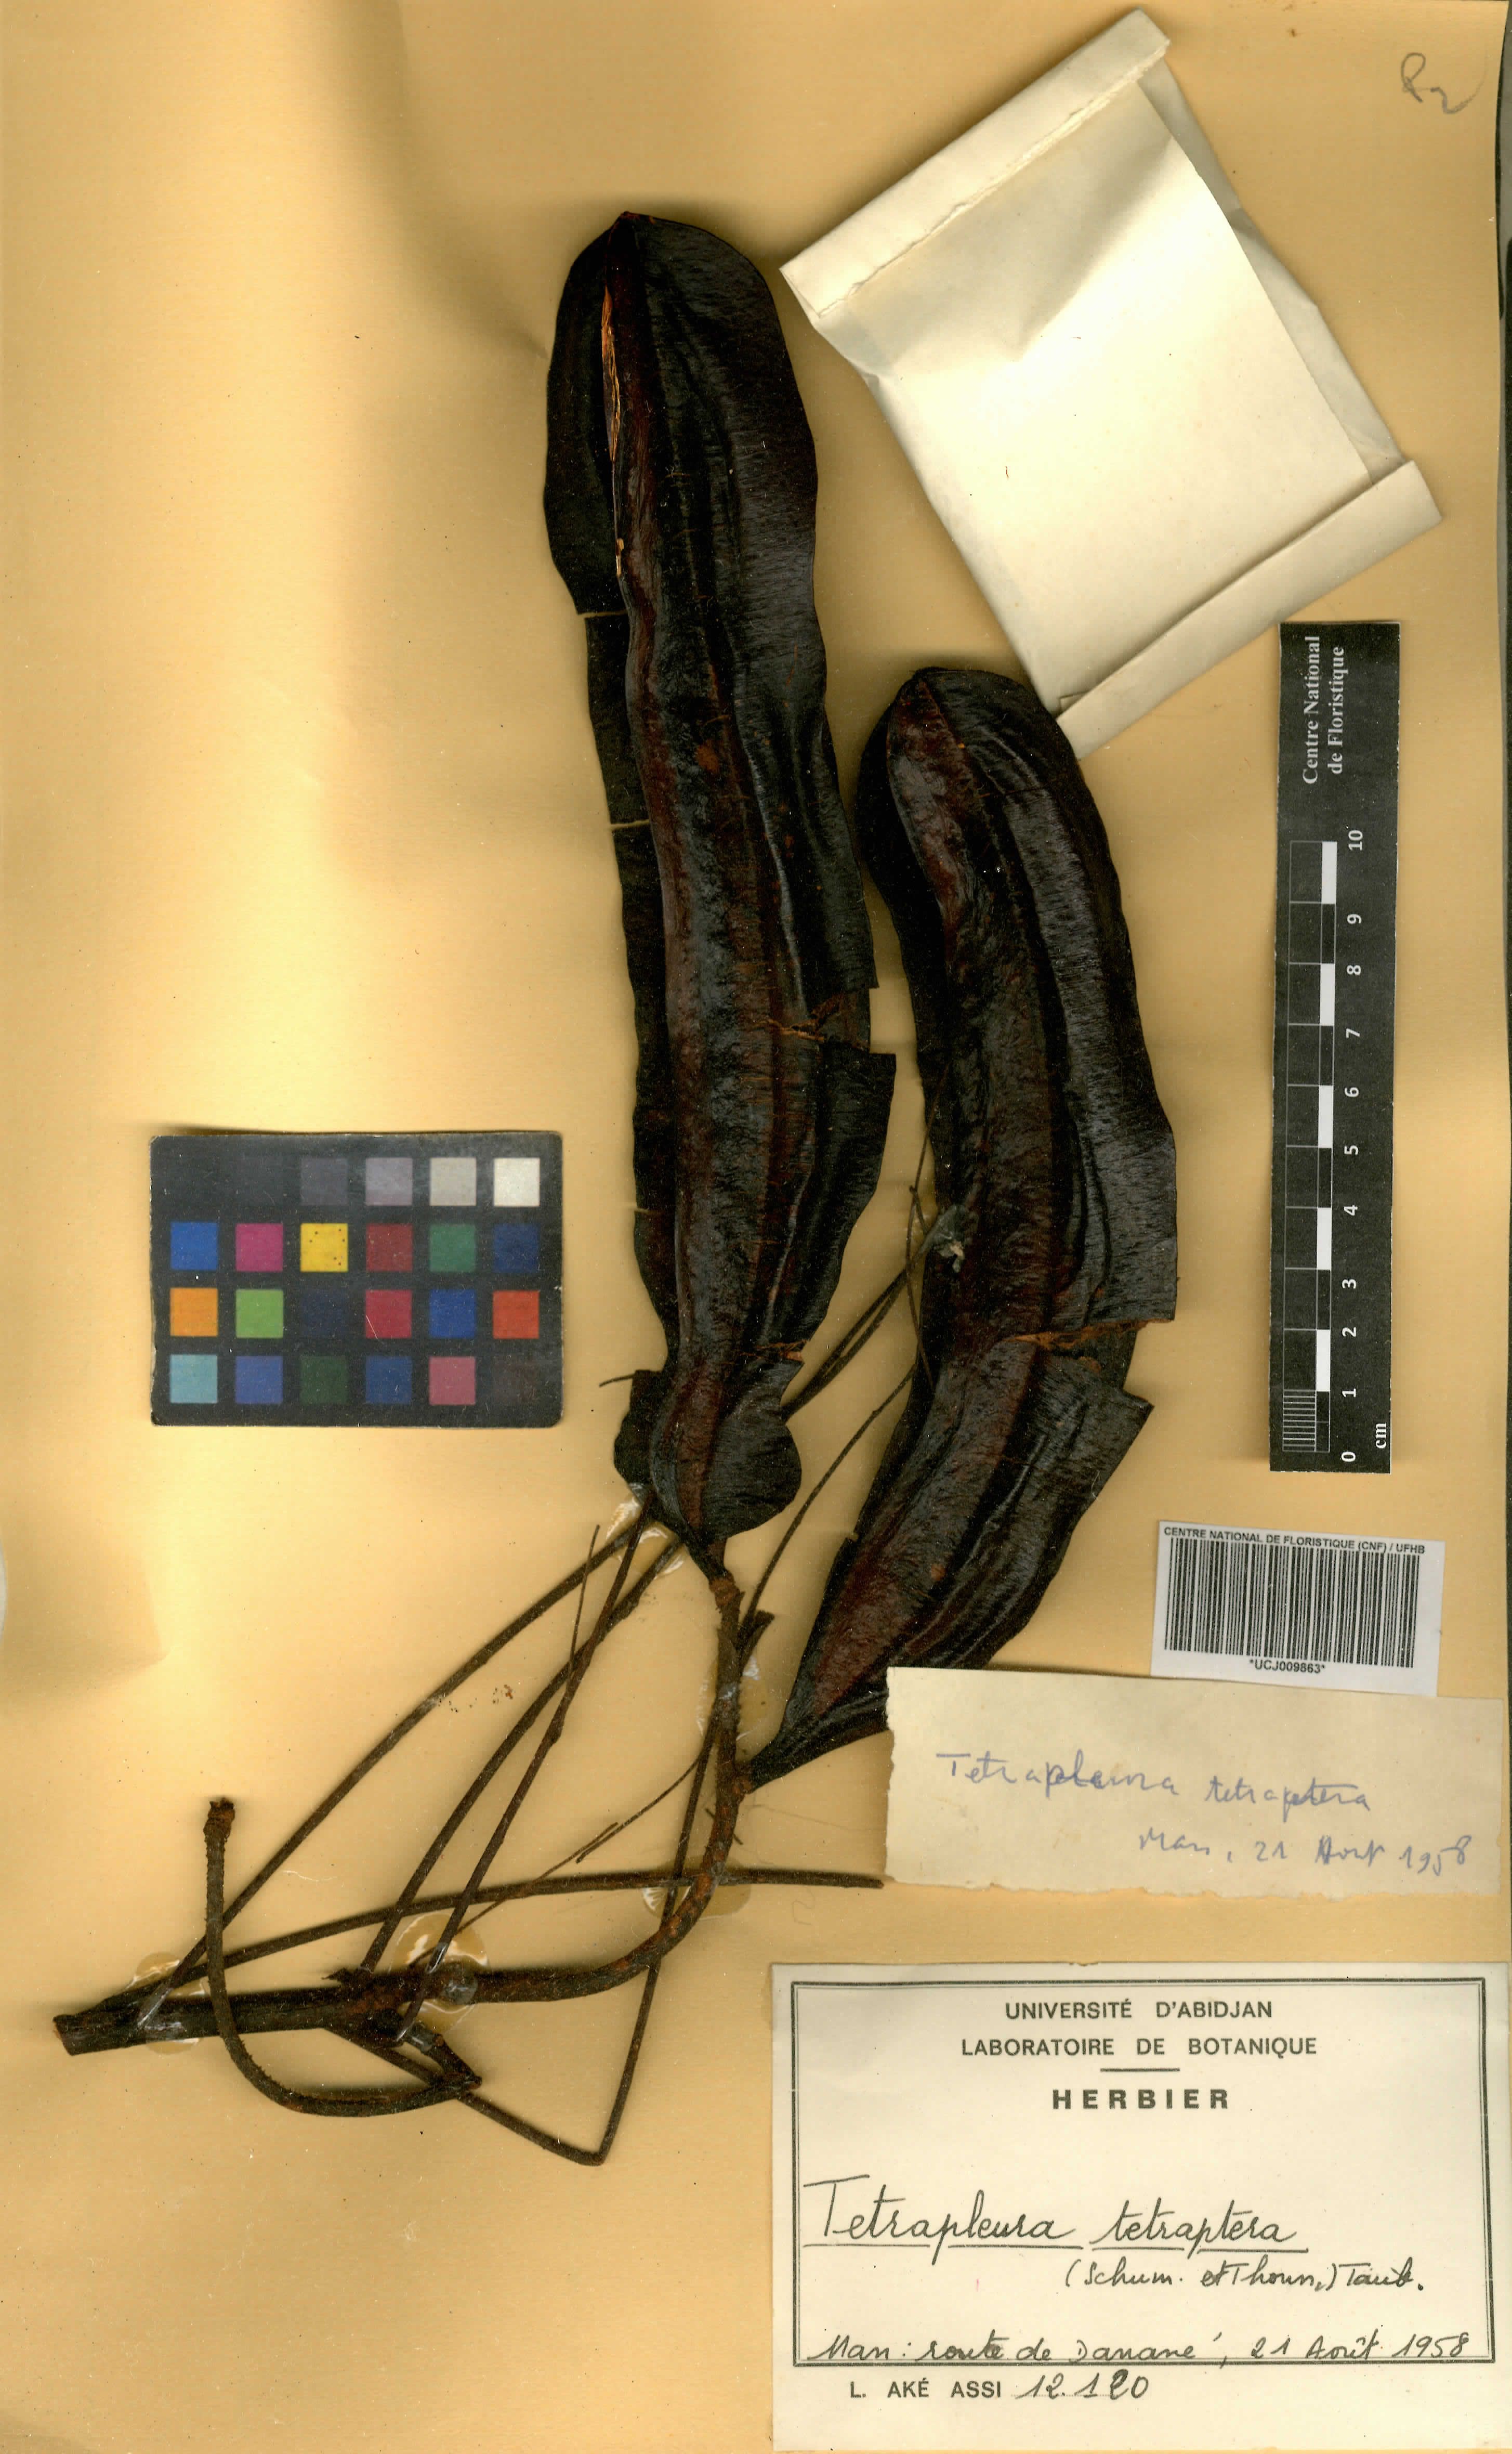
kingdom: Plantae
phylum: Tracheophyta
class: Magnoliopsida
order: Fabales
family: Fabaceae
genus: Tetrapleura
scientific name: Tetrapleura tetraptera
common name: Aridan
